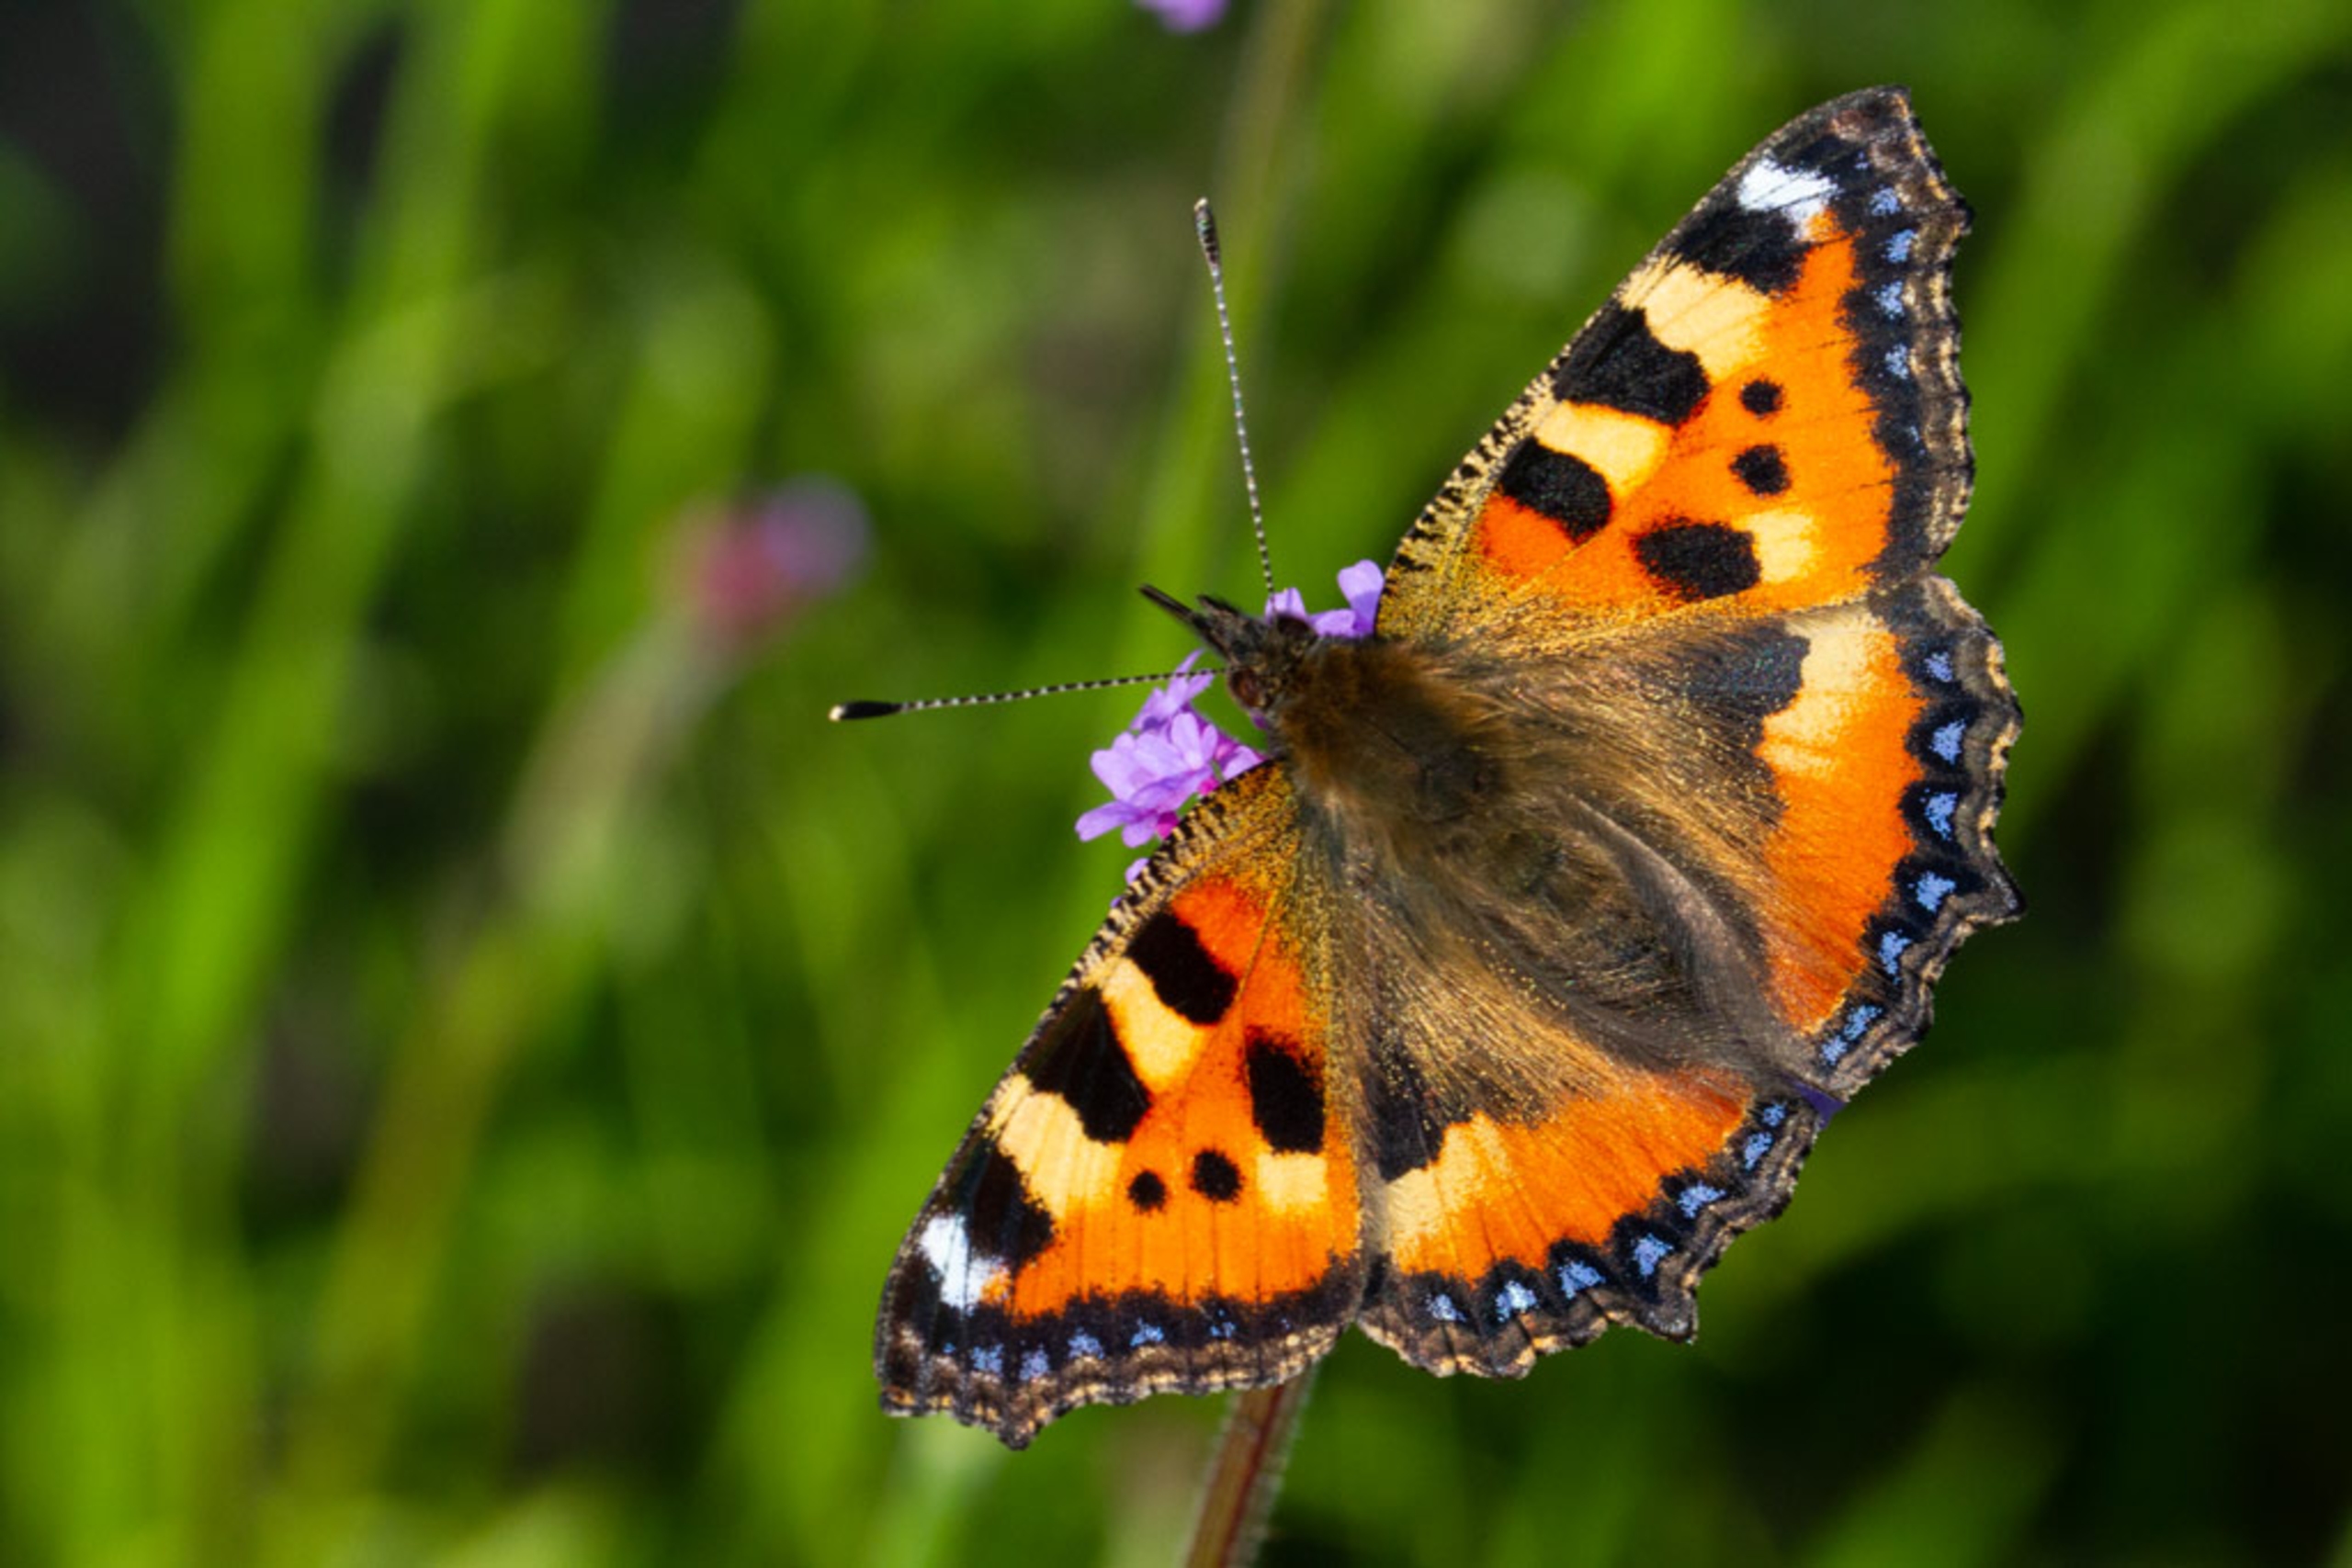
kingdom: Animalia
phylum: Arthropoda
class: Insecta
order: Lepidoptera
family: Nymphalidae
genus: Aglais
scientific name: Aglais urticae
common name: Nældens takvinge
